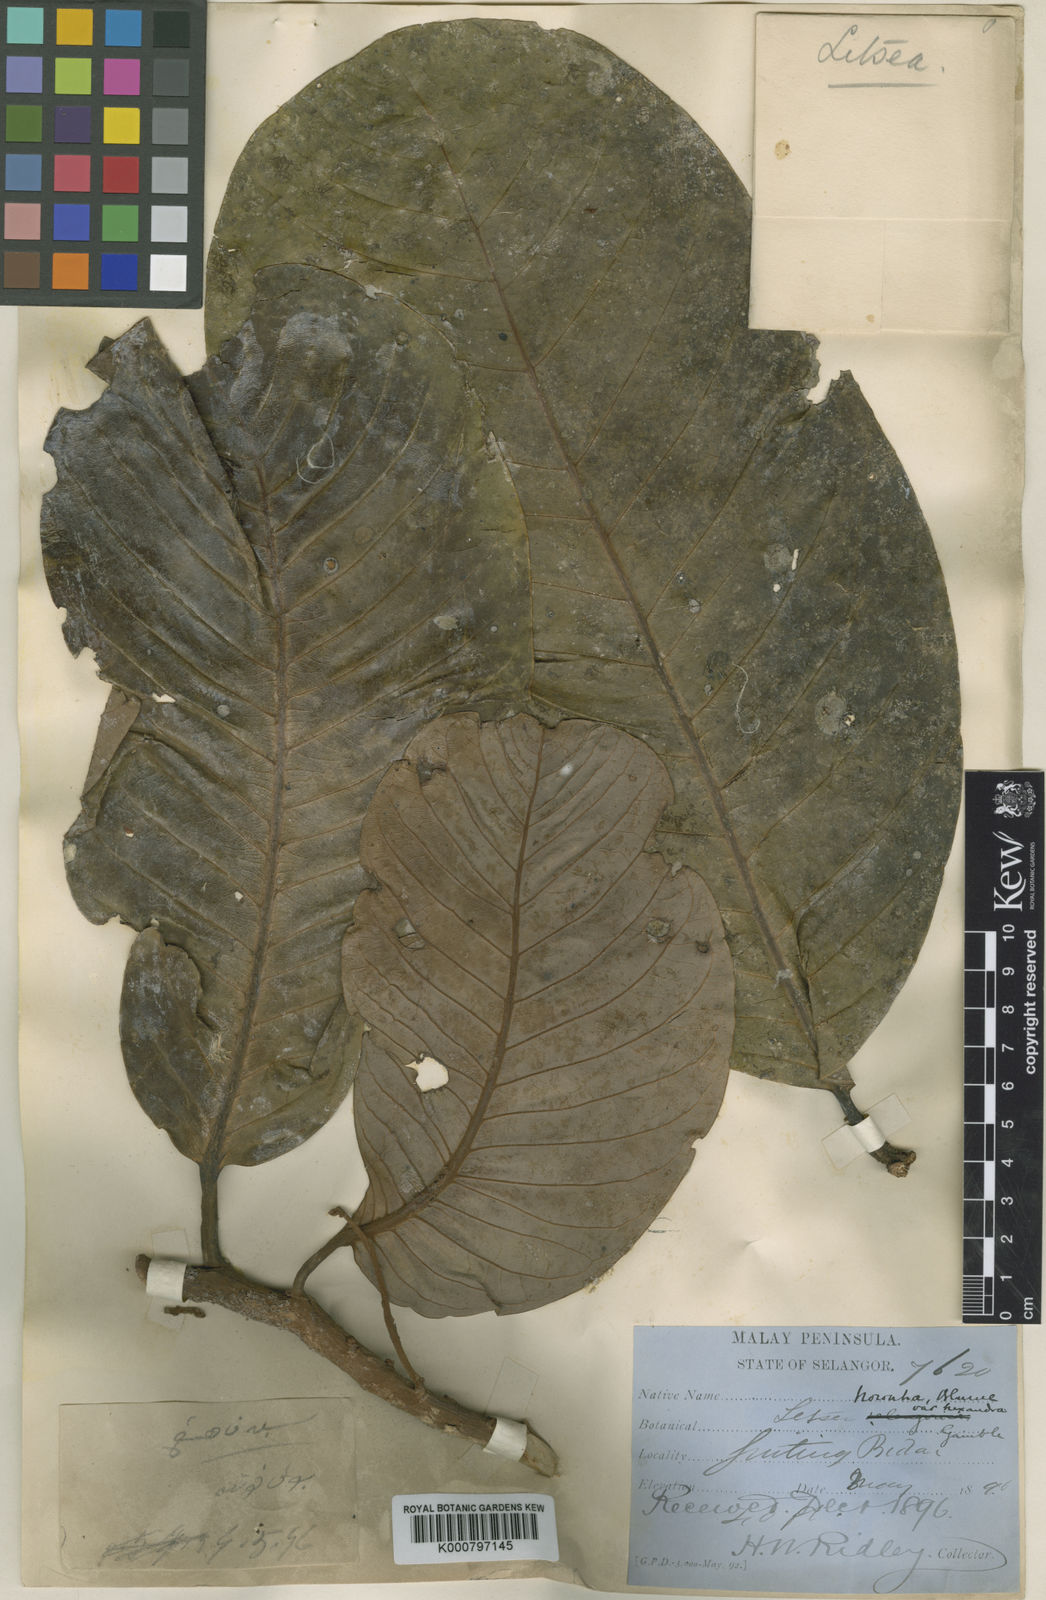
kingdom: Plantae
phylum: Tracheophyta
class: Magnoliopsida
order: Laurales
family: Lauraceae
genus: Litsea
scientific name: Litsea noronhae
